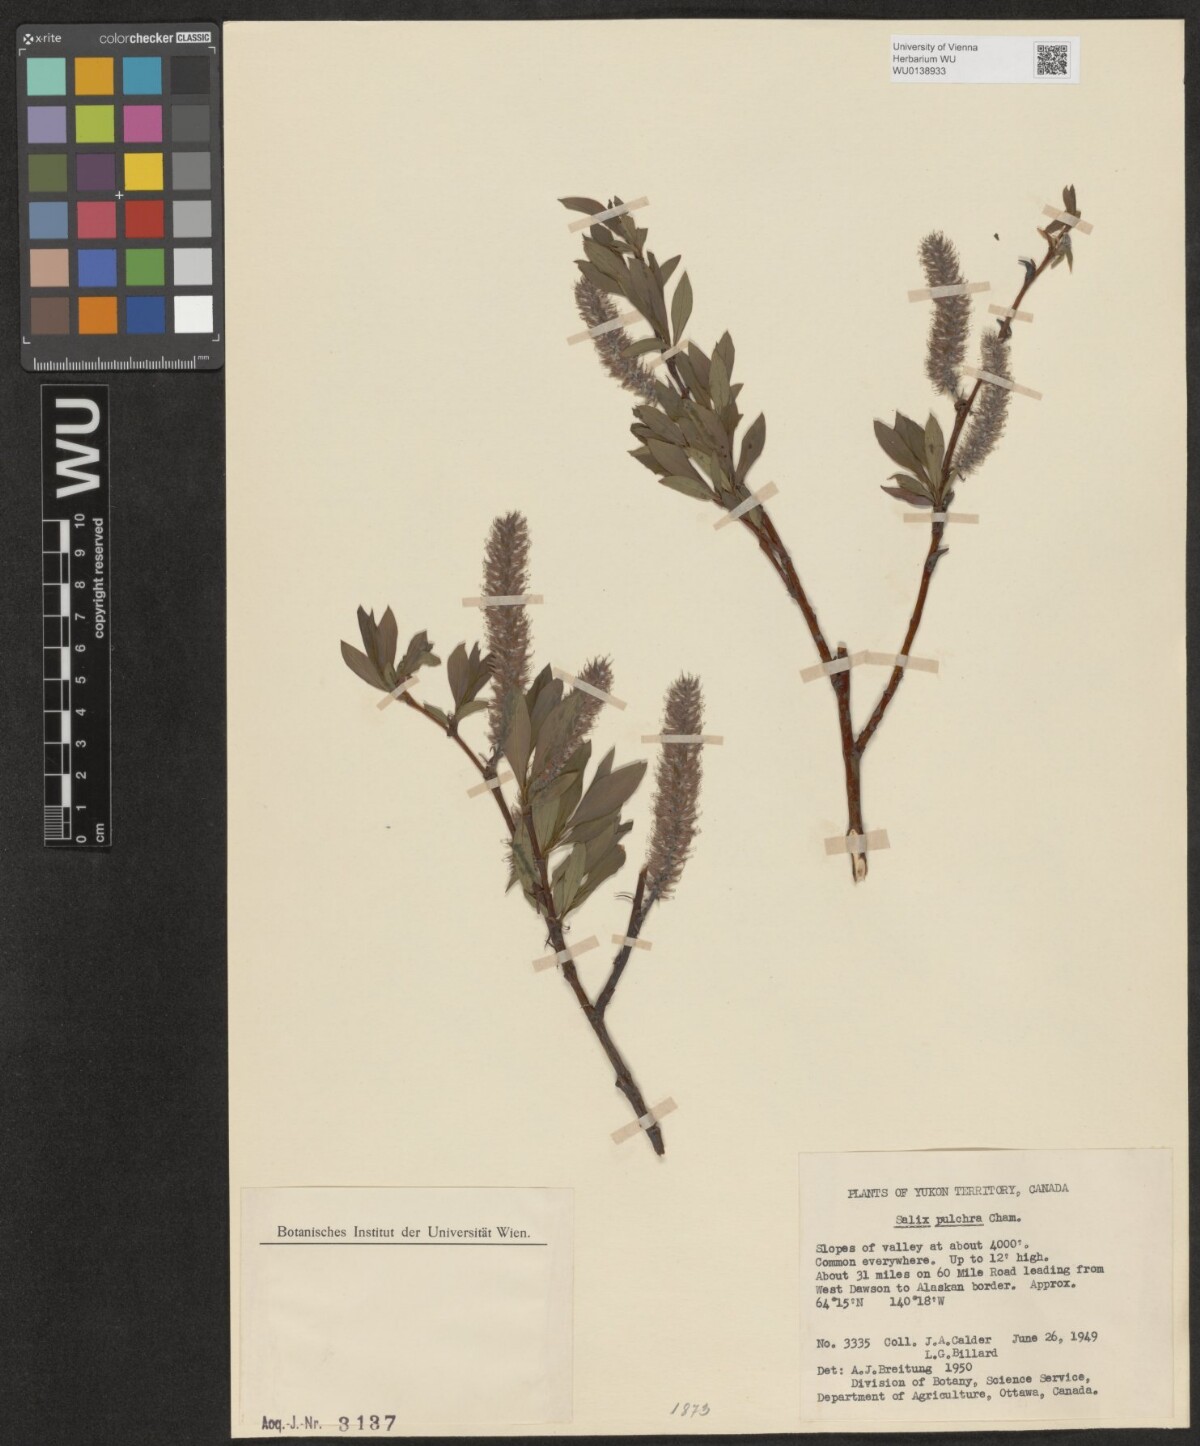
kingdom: Plantae
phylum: Tracheophyta
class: Magnoliopsida
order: Malpighiales
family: Salicaceae
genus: Salix
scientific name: Salix pulchra
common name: Diamond-leaved willow
